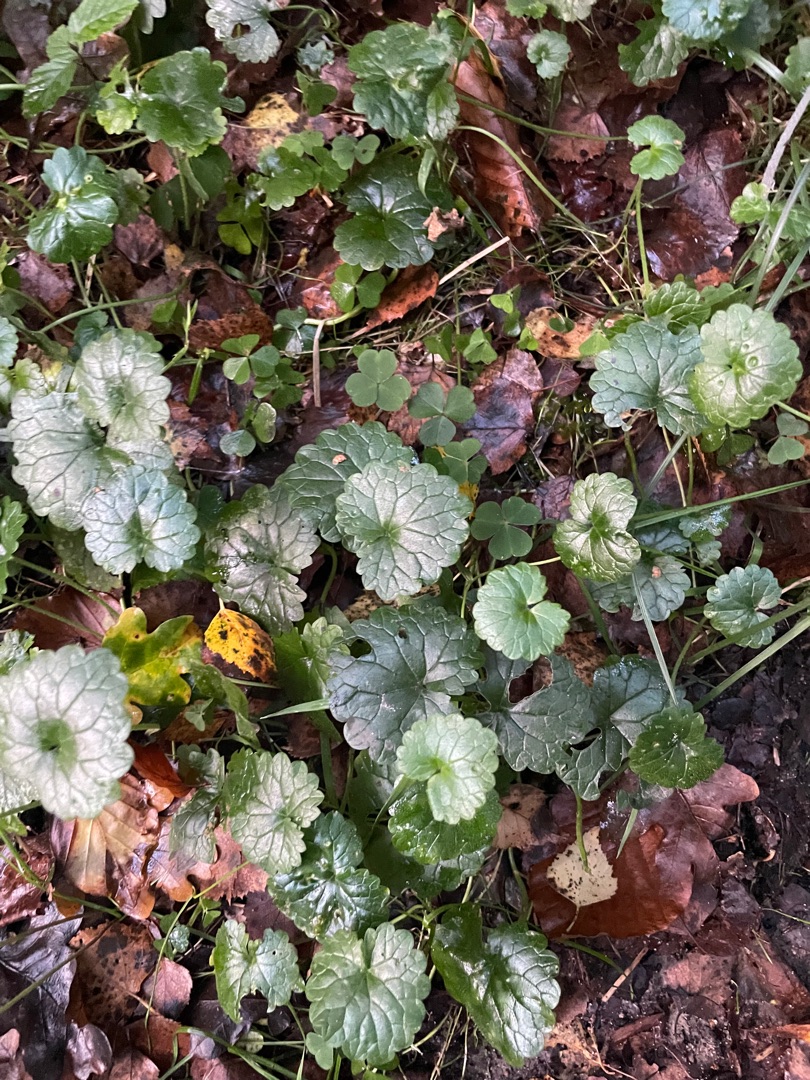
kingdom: Plantae
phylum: Tracheophyta
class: Magnoliopsida
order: Lamiales
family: Lamiaceae
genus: Glechoma
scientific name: Glechoma hederacea
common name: Korsknap
